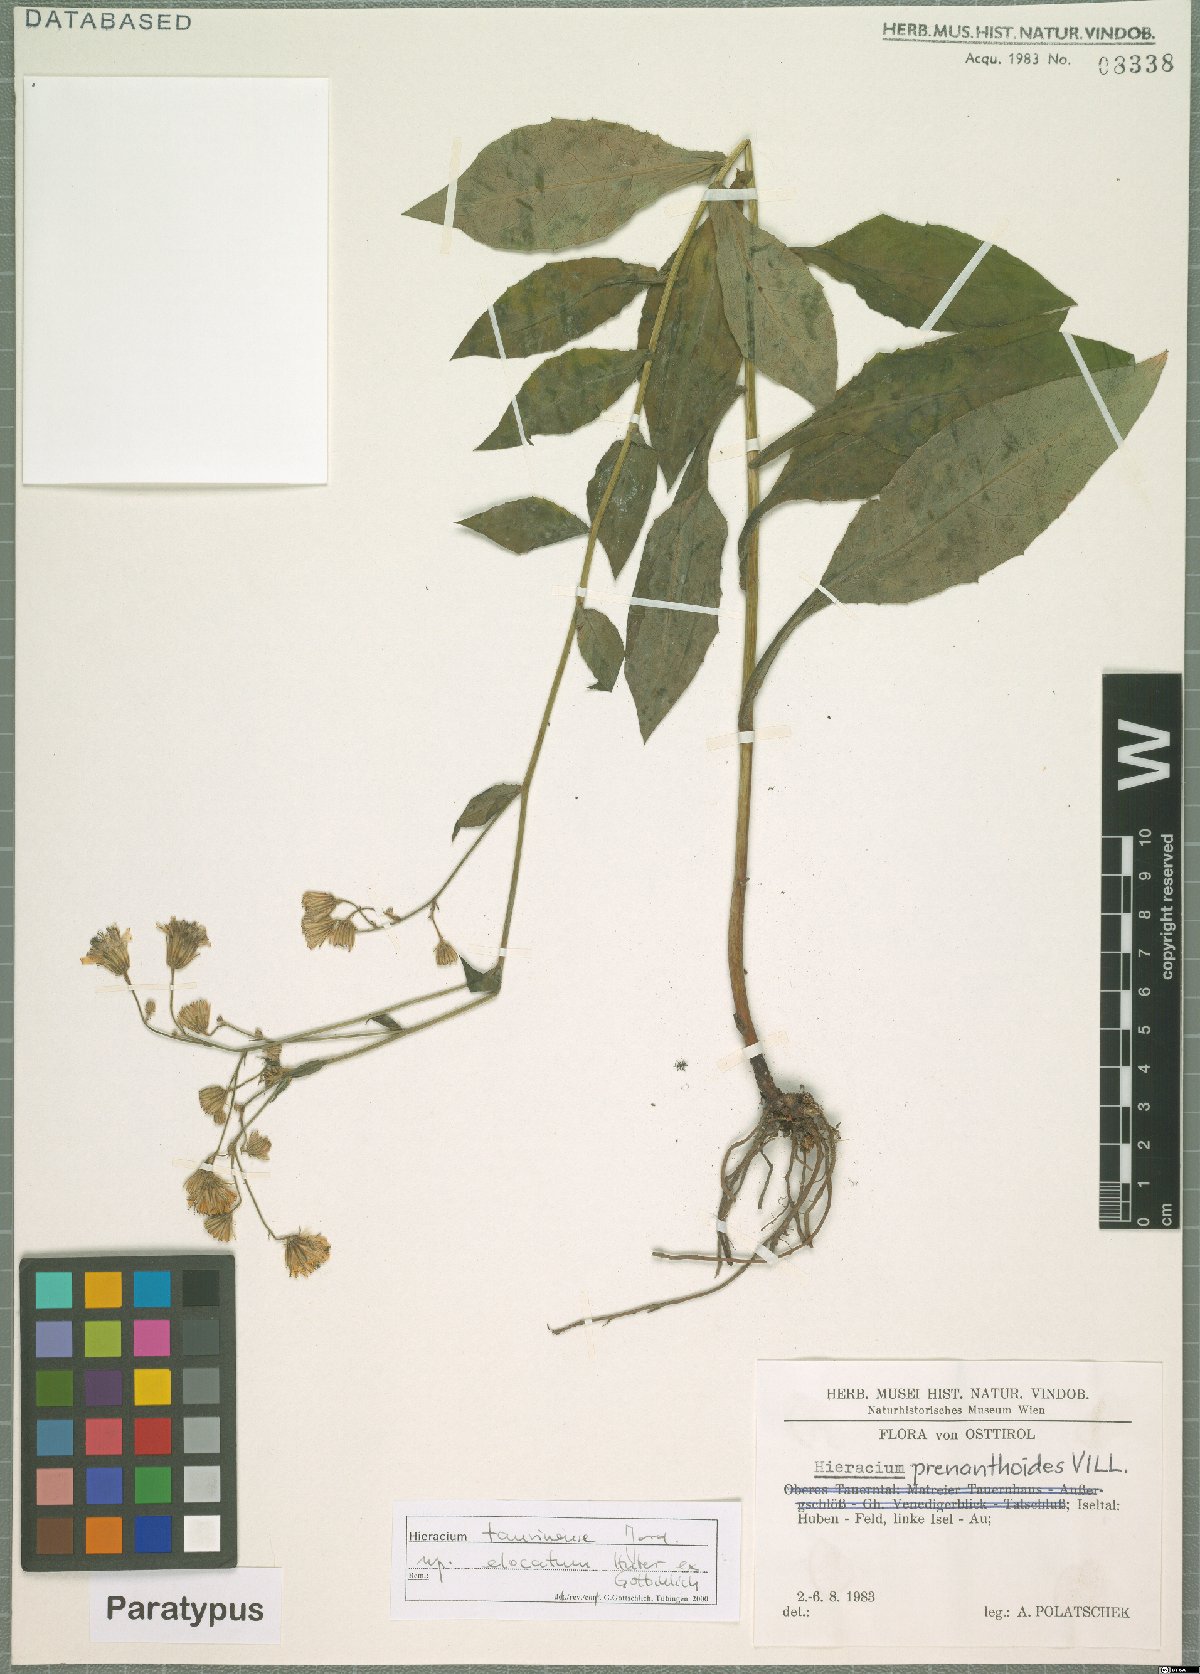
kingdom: Plantae
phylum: Tracheophyta
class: Magnoliopsida
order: Asterales
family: Asteraceae
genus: Hieracium
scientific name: Hieracium symphytaceum
